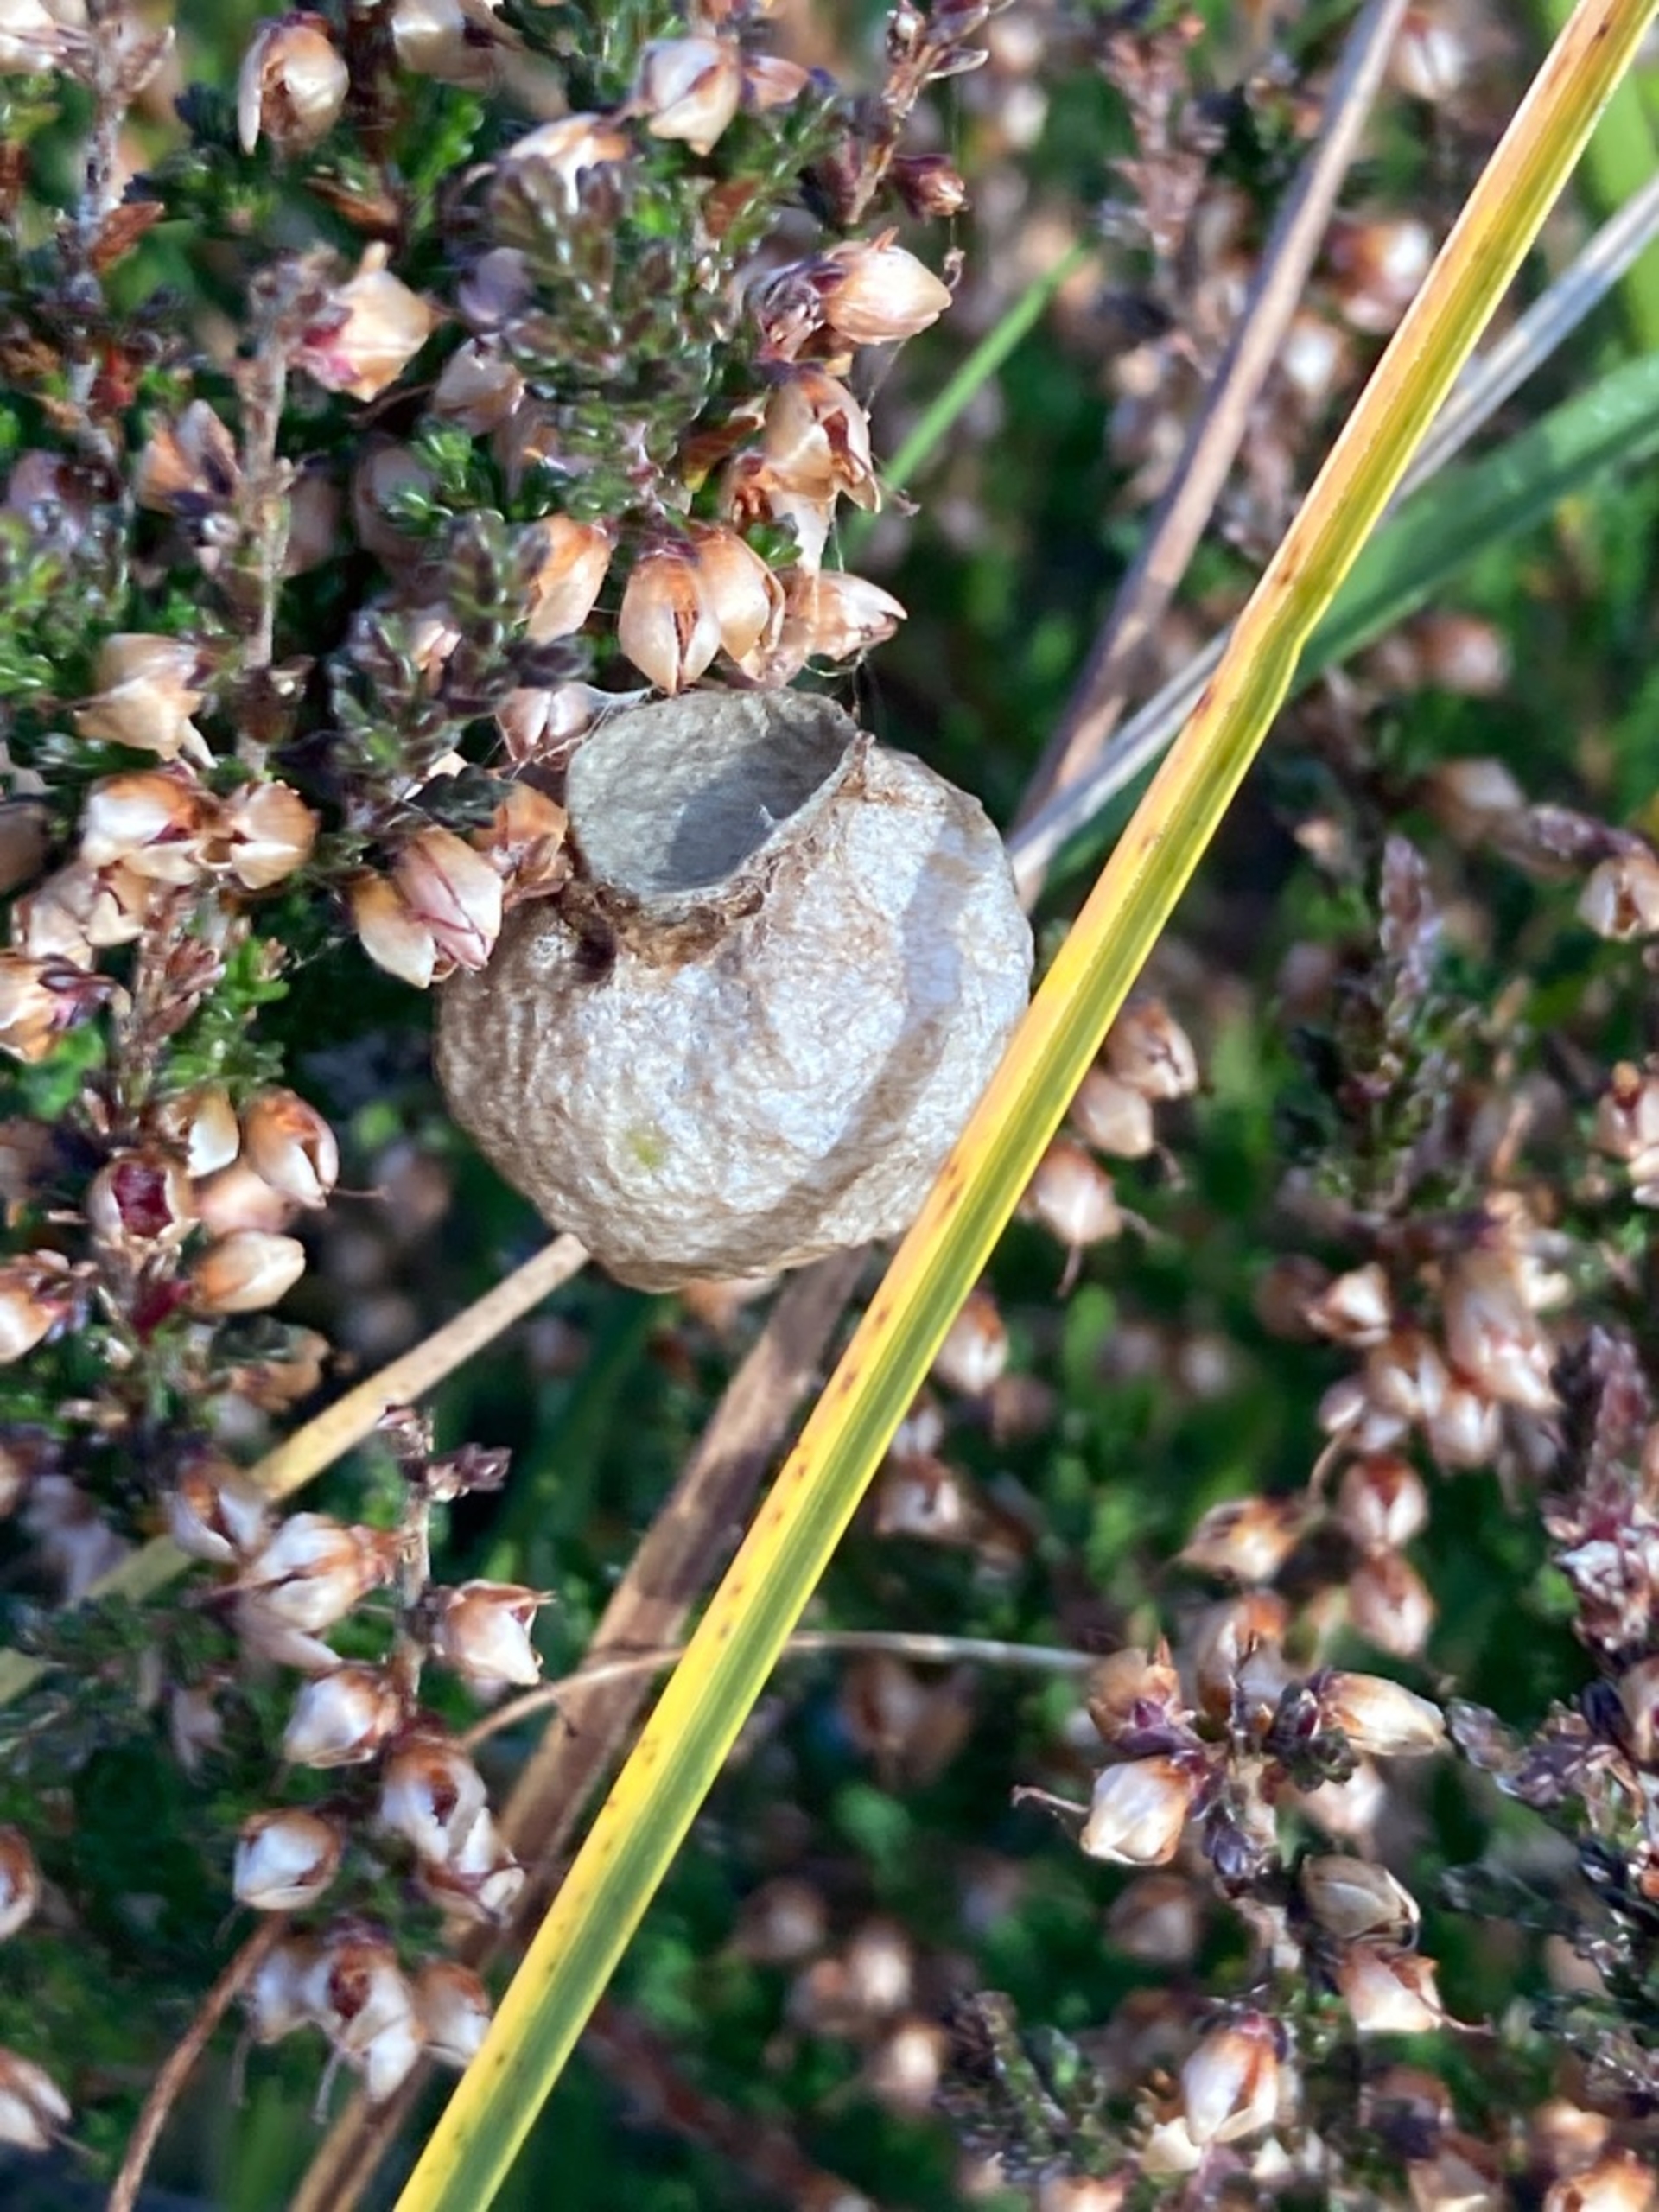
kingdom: Animalia
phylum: Arthropoda
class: Arachnida
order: Araneae
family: Araneidae
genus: Argiope
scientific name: Argiope bruennichi
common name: Hvepseedderkop
